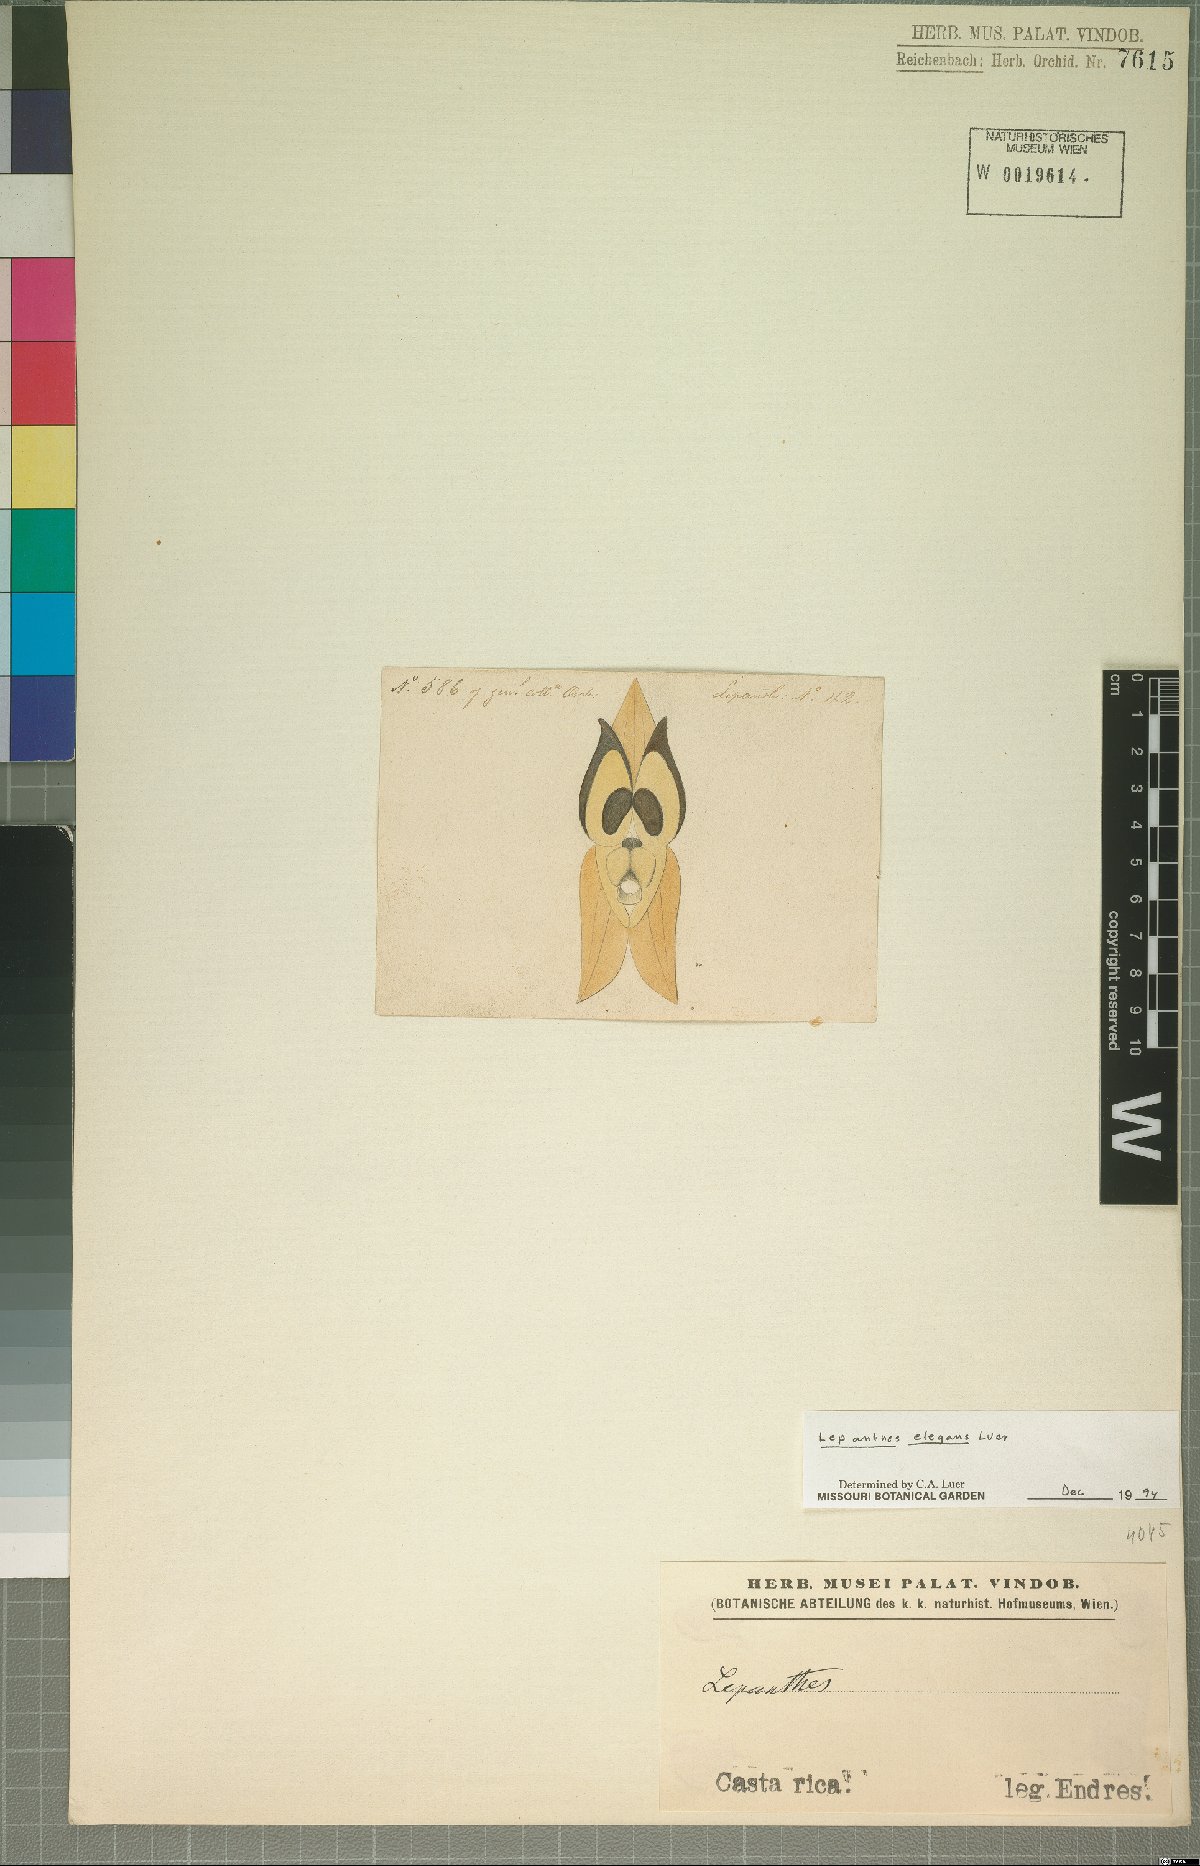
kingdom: Plantae
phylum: Tracheophyta
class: Liliopsida
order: Asparagales
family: Orchidaceae
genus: Lepanthes
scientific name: Lepanthes elegans
